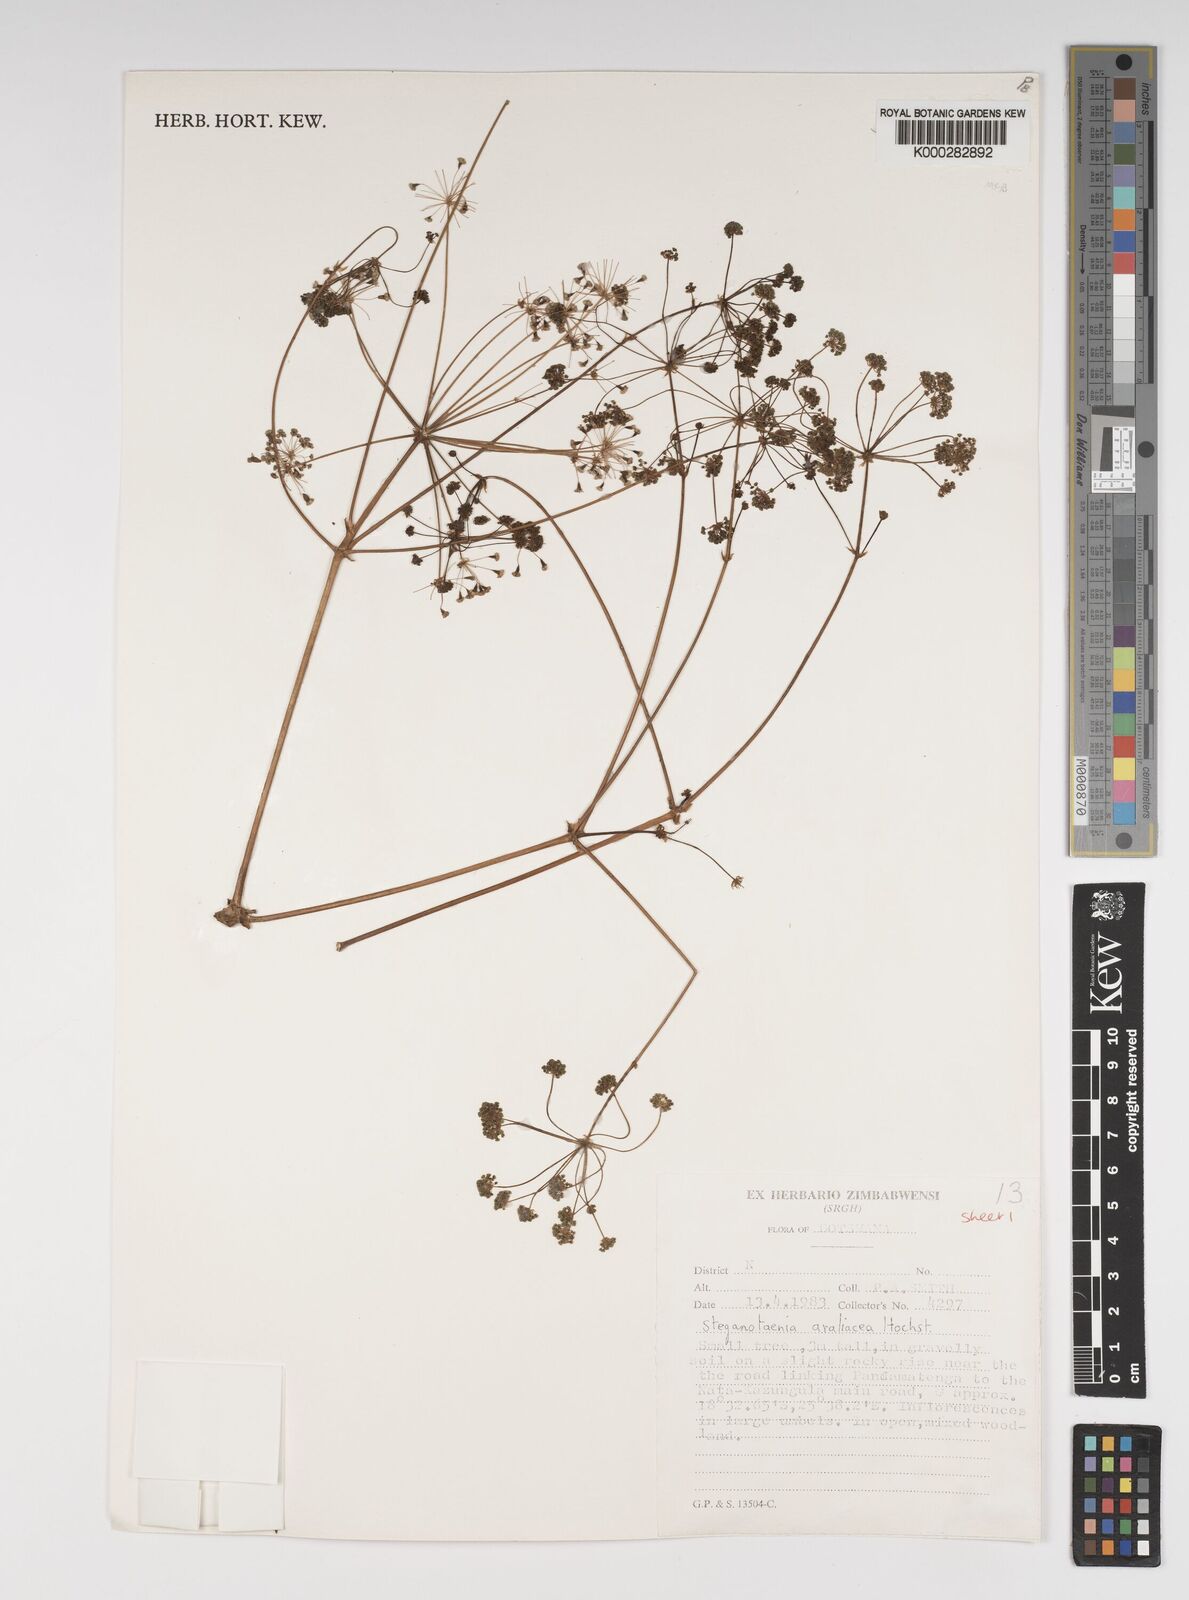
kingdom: Plantae
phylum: Tracheophyta
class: Magnoliopsida
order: Apiales
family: Apiaceae
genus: Steganotaenia
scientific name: Steganotaenia araliacea
